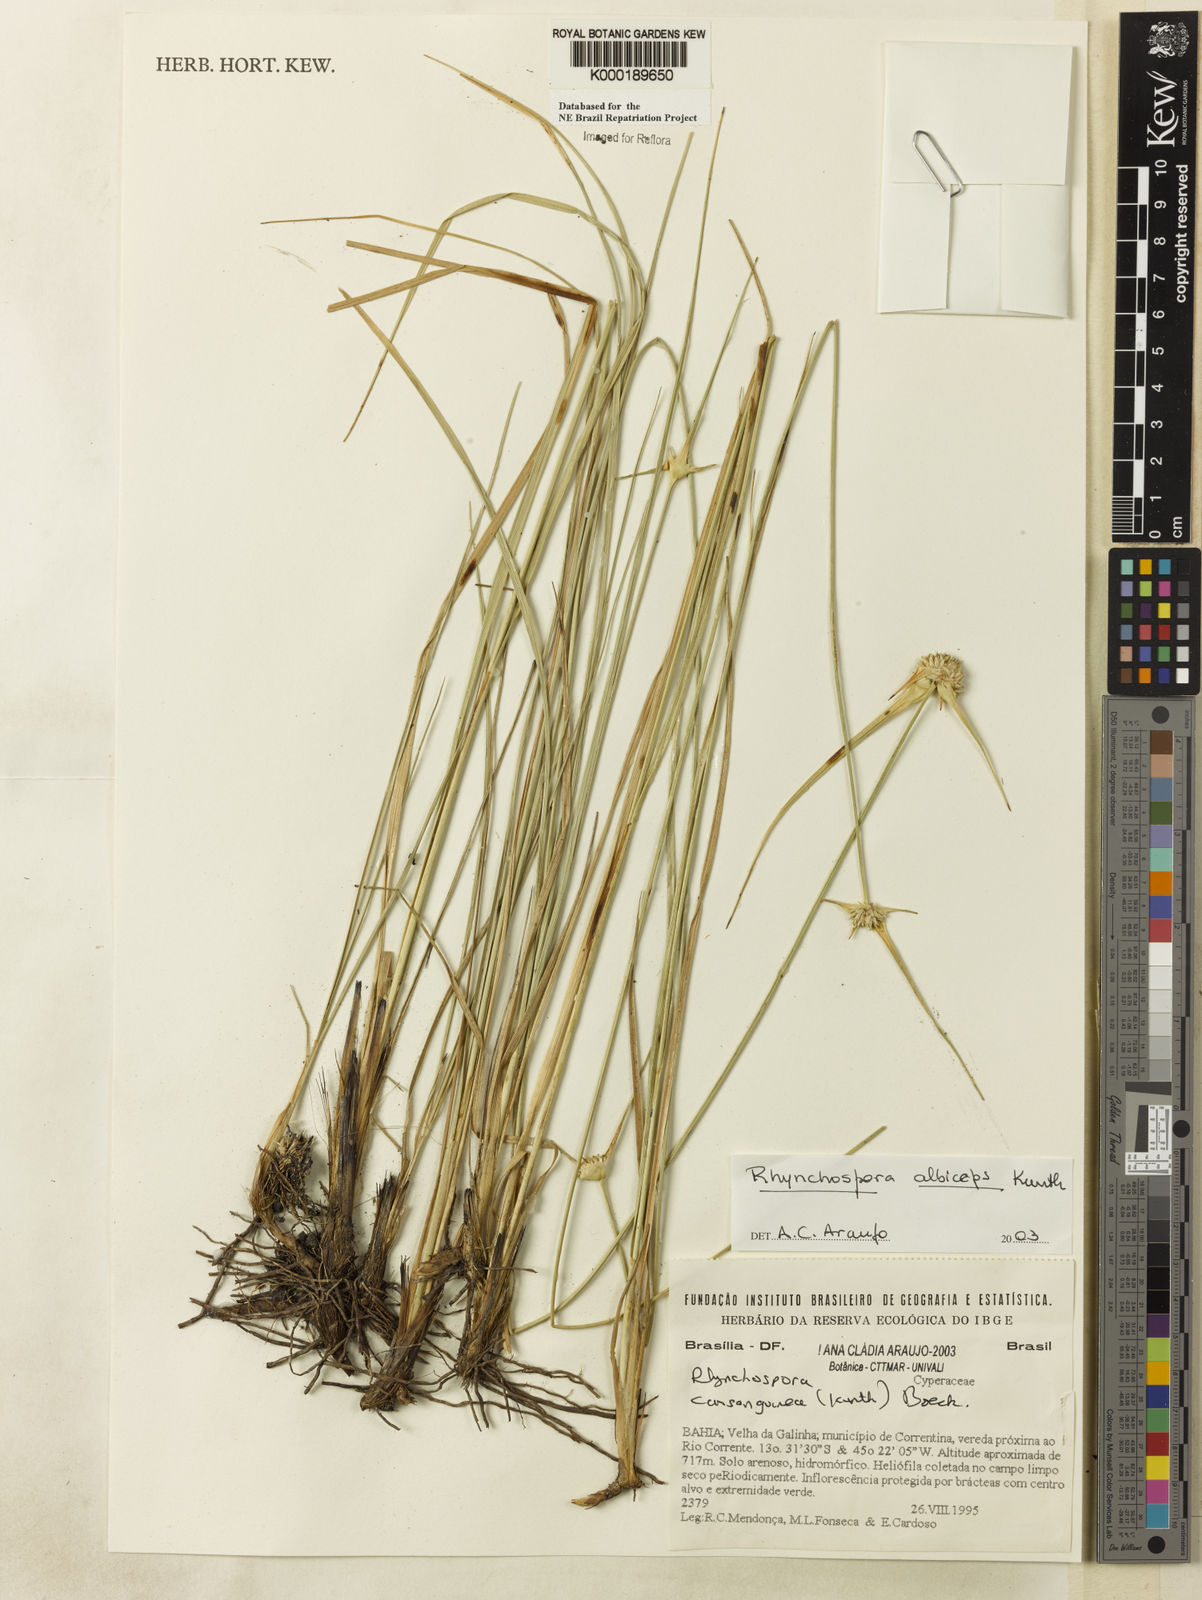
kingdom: Plantae
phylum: Tracheophyta
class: Liliopsida
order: Poales
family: Cyperaceae
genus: Rhynchospora
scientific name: Rhynchospora albiceps
